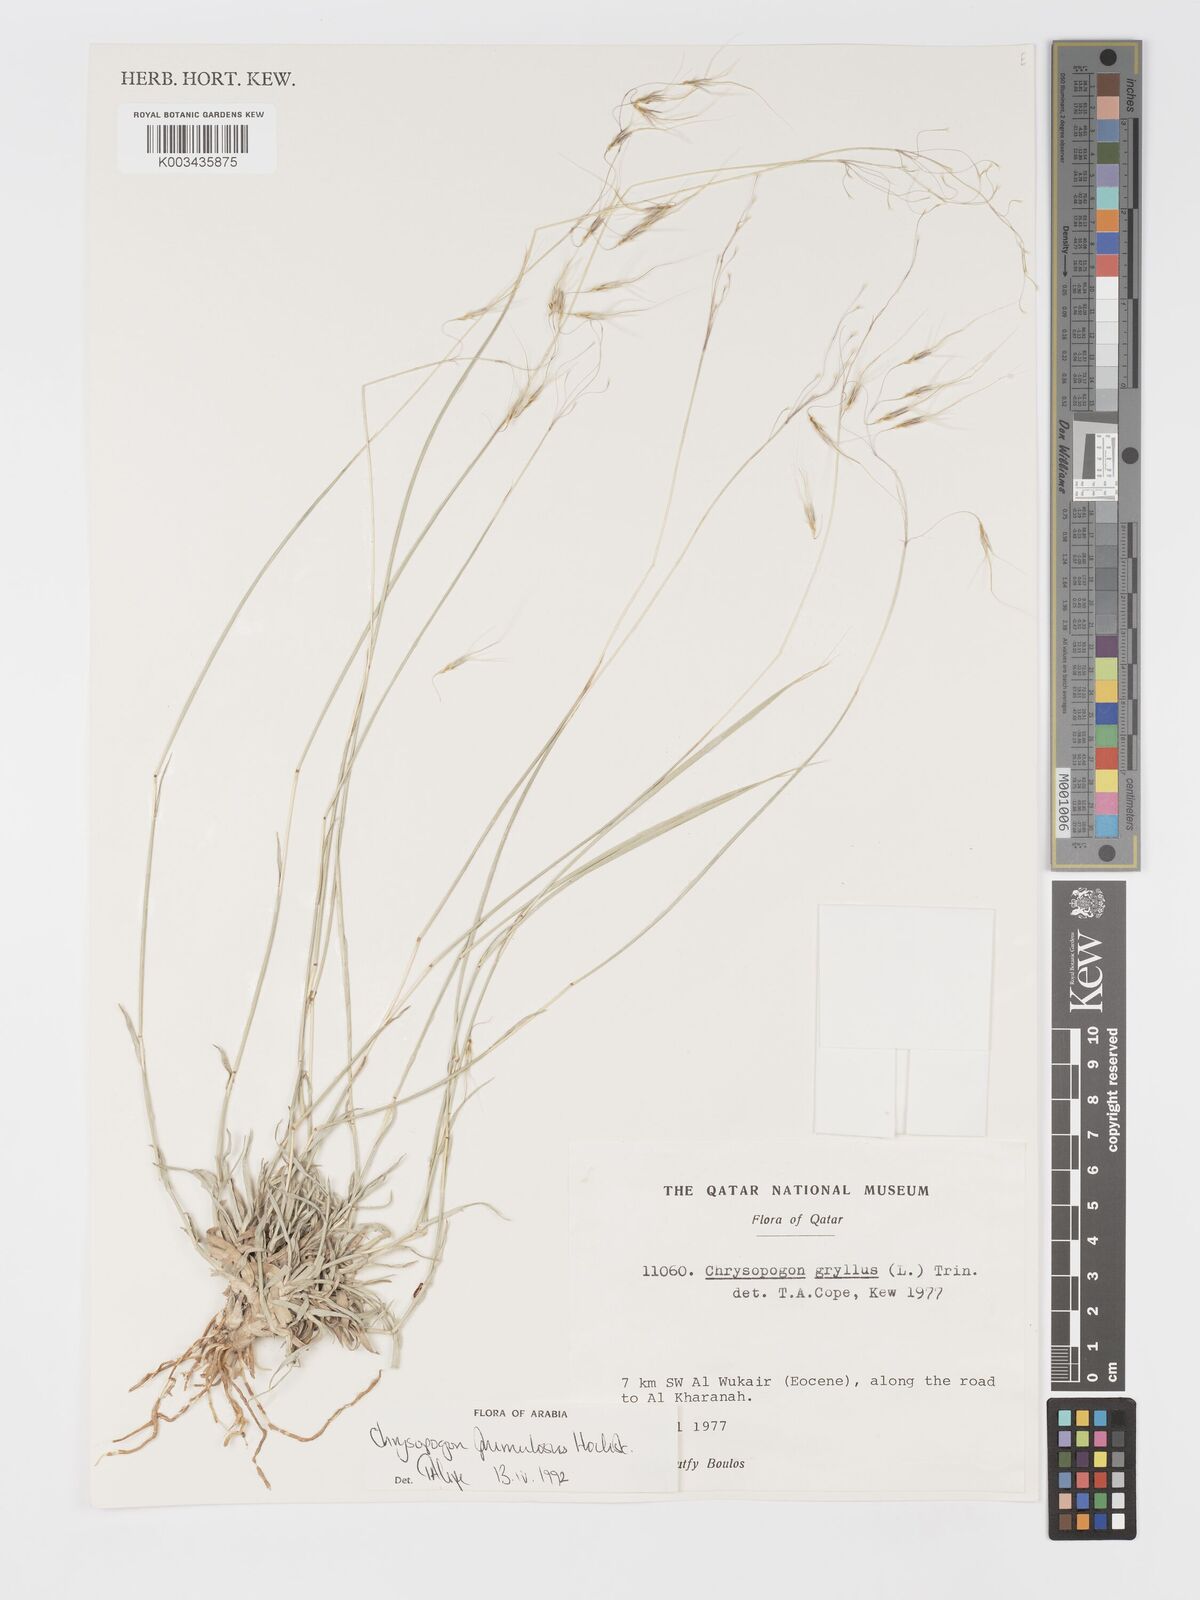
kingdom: Plantae
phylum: Tracheophyta
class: Liliopsida
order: Poales
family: Poaceae
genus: Chrysopogon
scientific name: Chrysopogon plumulosus
